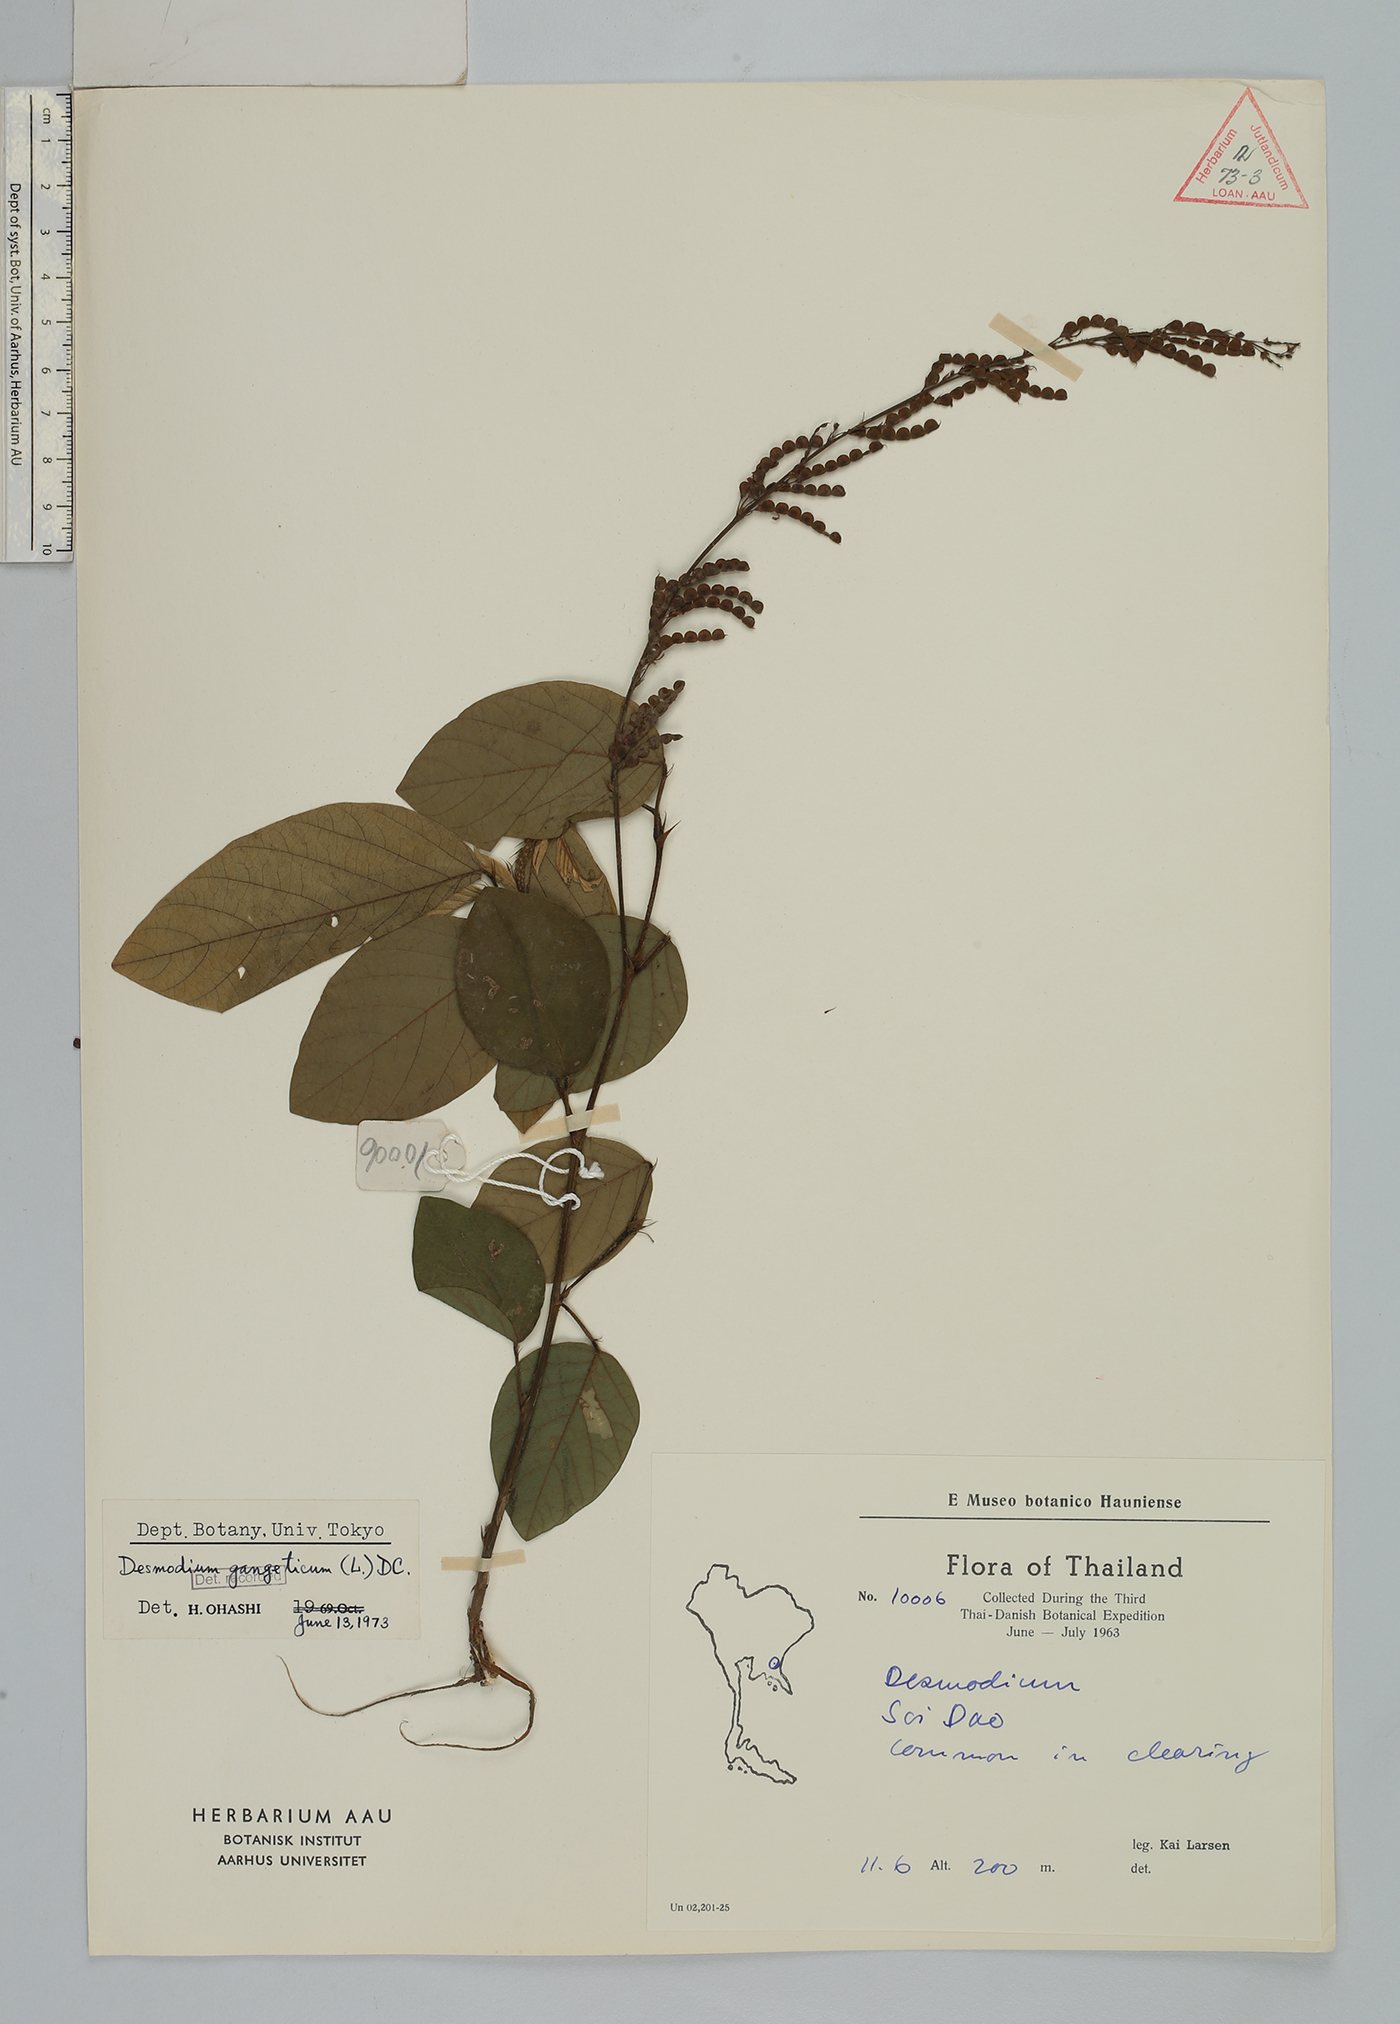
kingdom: Plantae
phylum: Tracheophyta
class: Magnoliopsida
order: Fabales
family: Fabaceae
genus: Pleurolobus
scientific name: Pleurolobus gangeticus
